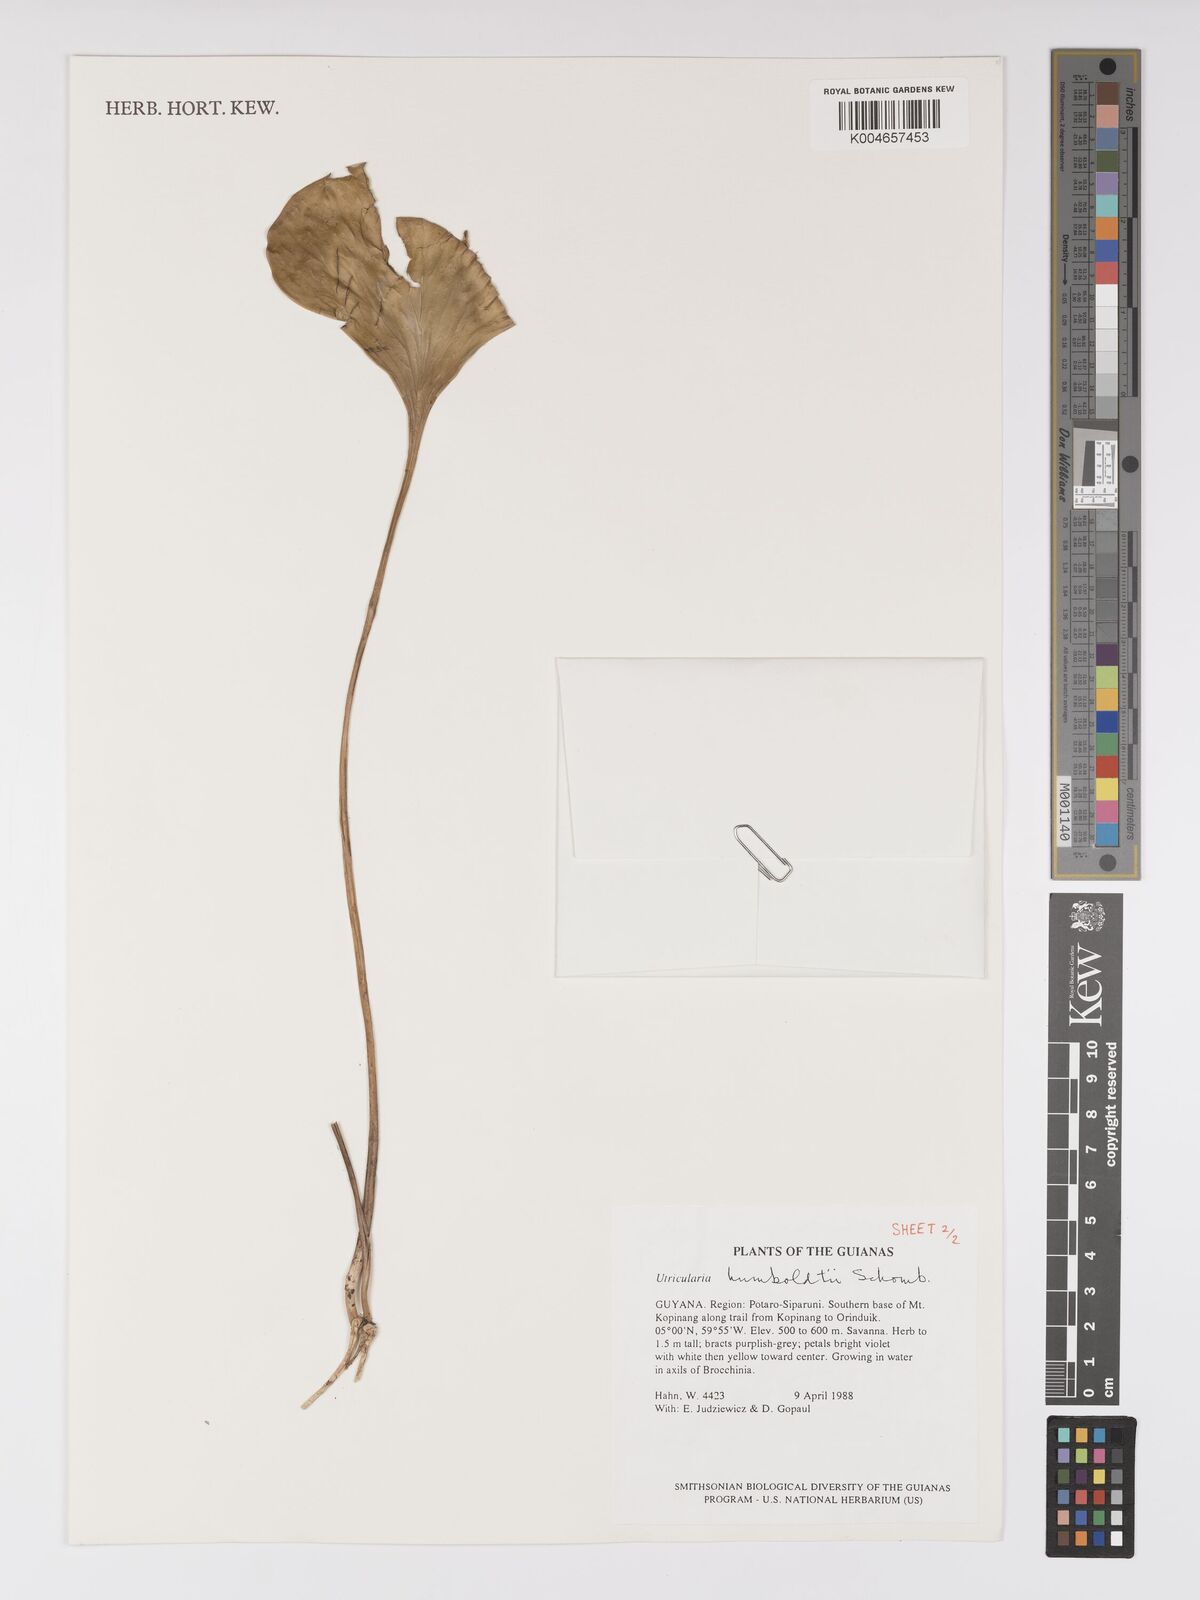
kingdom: Plantae
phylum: Tracheophyta
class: Magnoliopsida
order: Lamiales
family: Lentibulariaceae
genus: Utricularia
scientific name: Utricularia humboldtii
